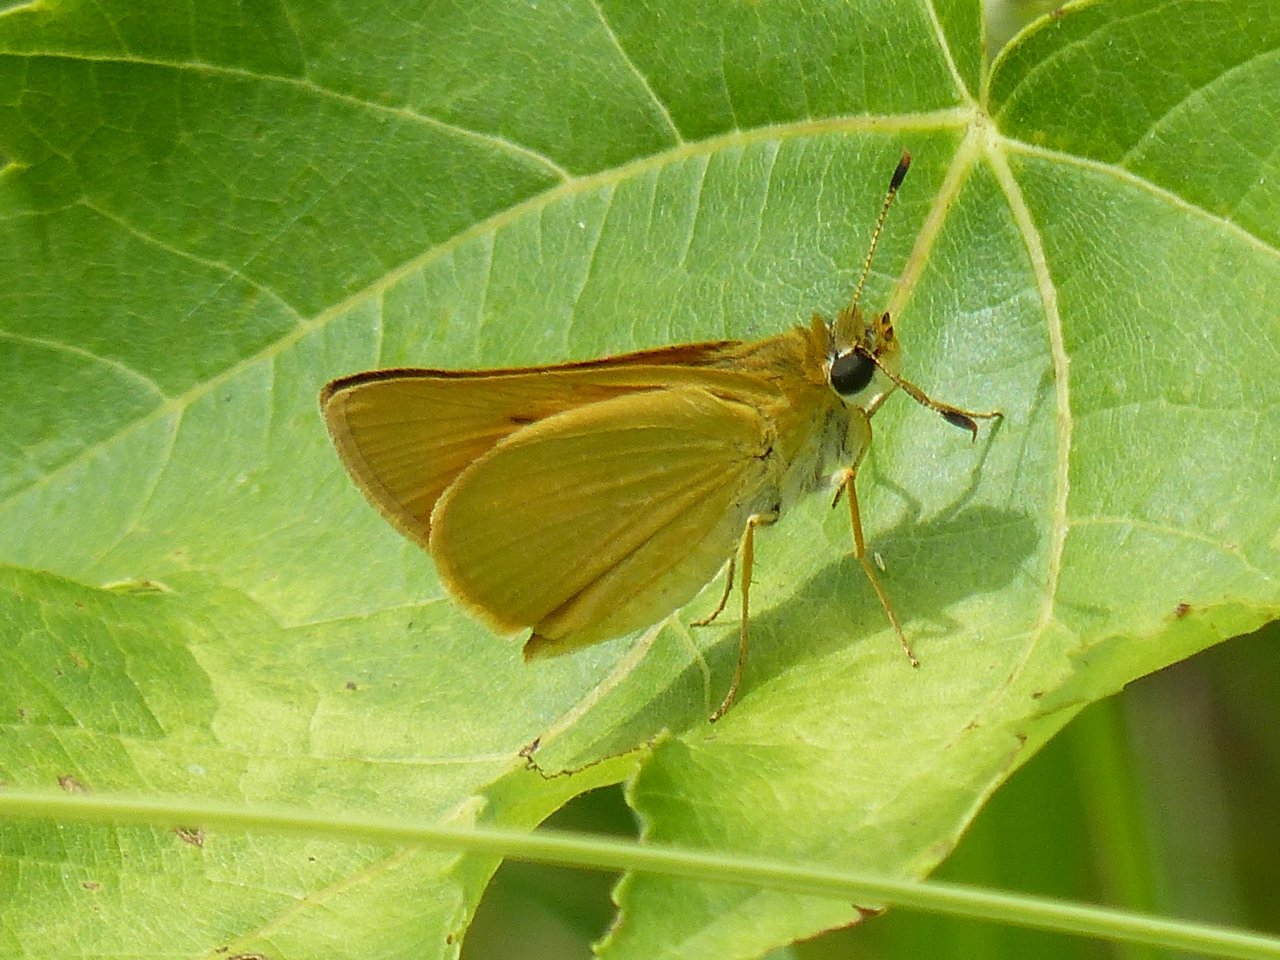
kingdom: Animalia
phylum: Arthropoda
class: Insecta
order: Lepidoptera
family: Hesperiidae
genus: Atrytone
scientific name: Atrytone delaware
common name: Delaware Skipper
